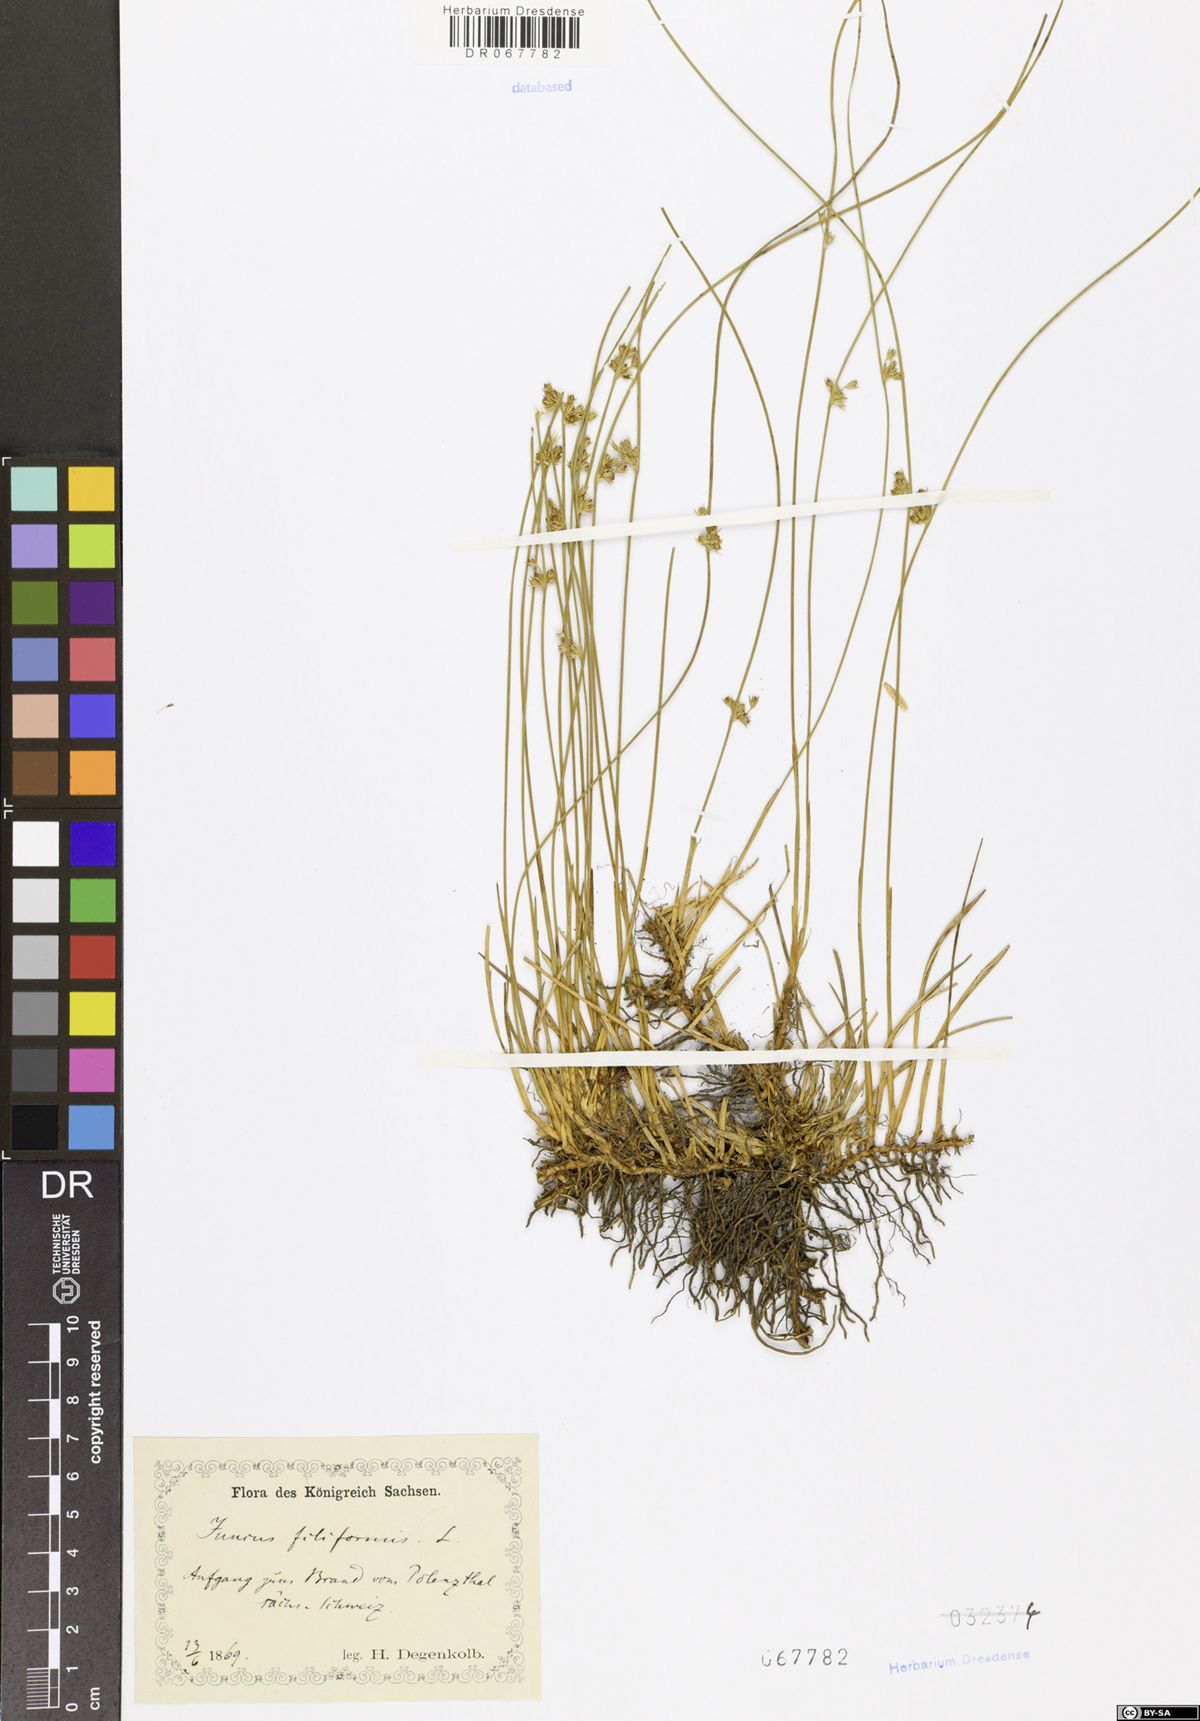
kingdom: Plantae
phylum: Tracheophyta
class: Liliopsida
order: Poales
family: Juncaceae
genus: Juncus
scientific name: Juncus inflexus
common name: Hard rush
